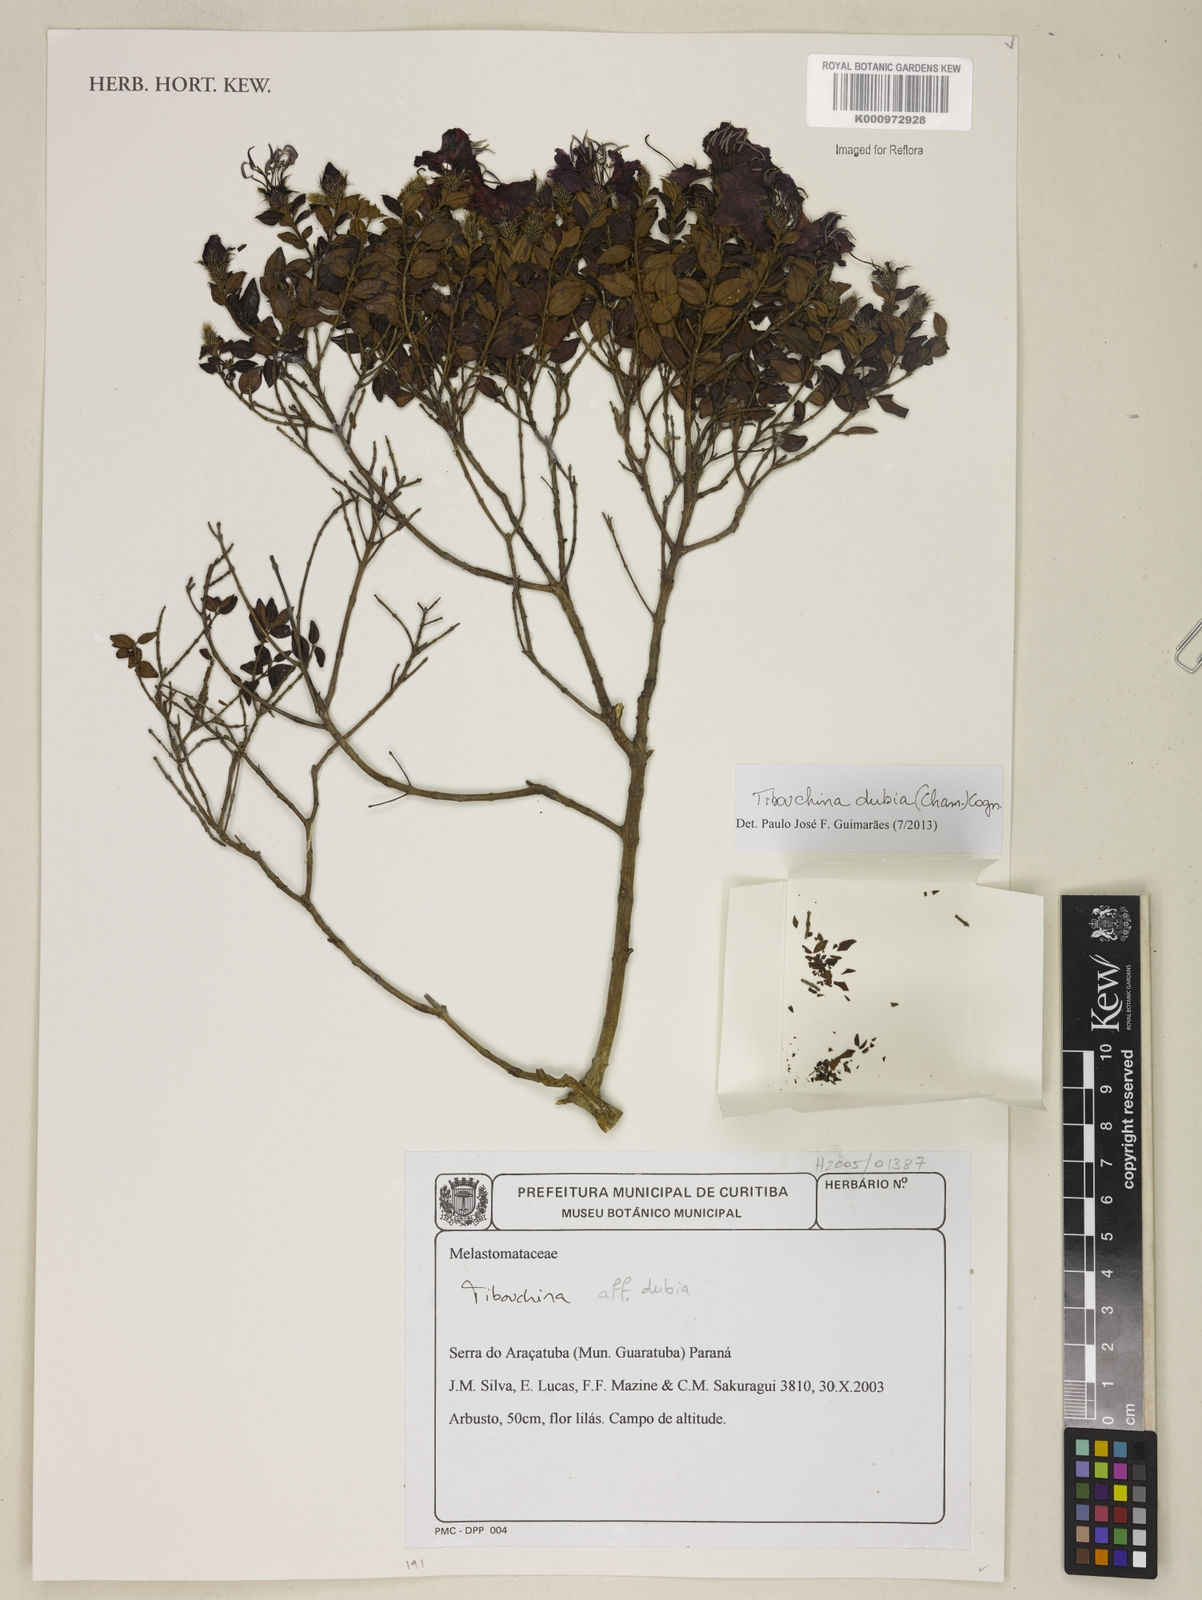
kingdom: Plantae
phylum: Tracheophyta
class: Magnoliopsida
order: Myrtales
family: Melastomataceae
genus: Pleroma
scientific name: Pleroma dubium
